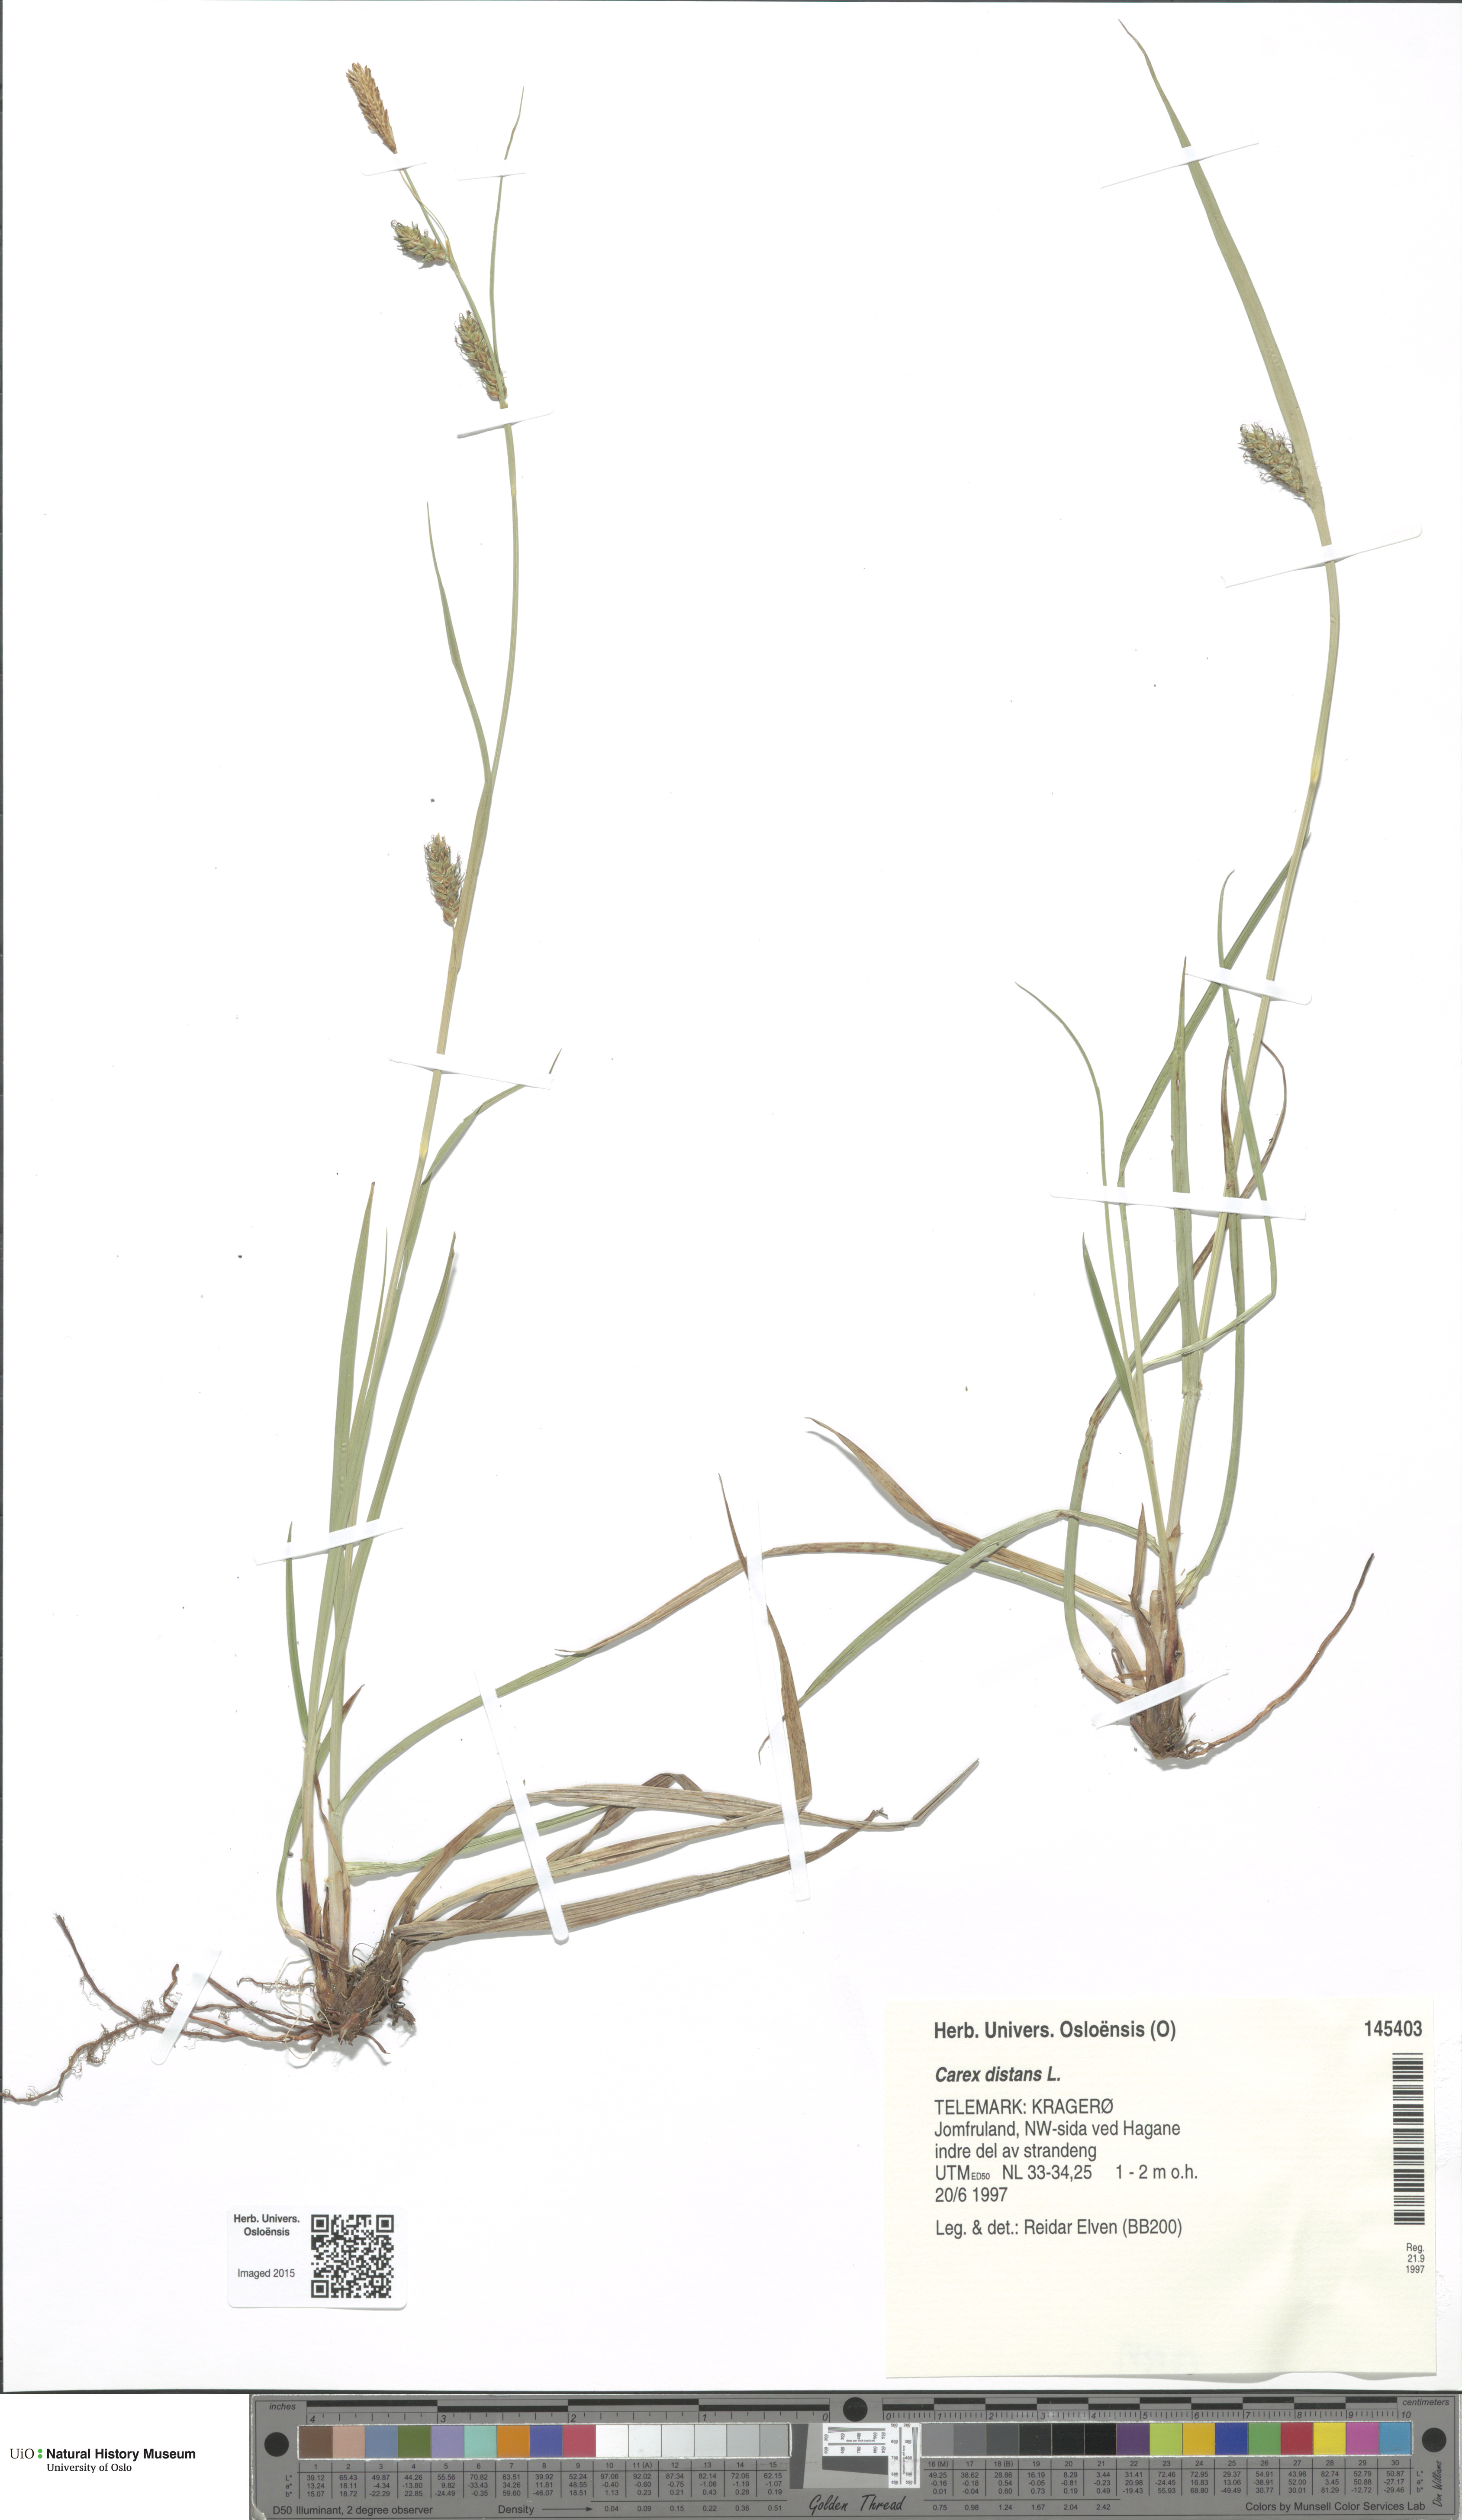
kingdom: Plantae
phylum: Tracheophyta
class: Liliopsida
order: Poales
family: Cyperaceae
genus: Carex
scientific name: Carex distans
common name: Distant sedge
